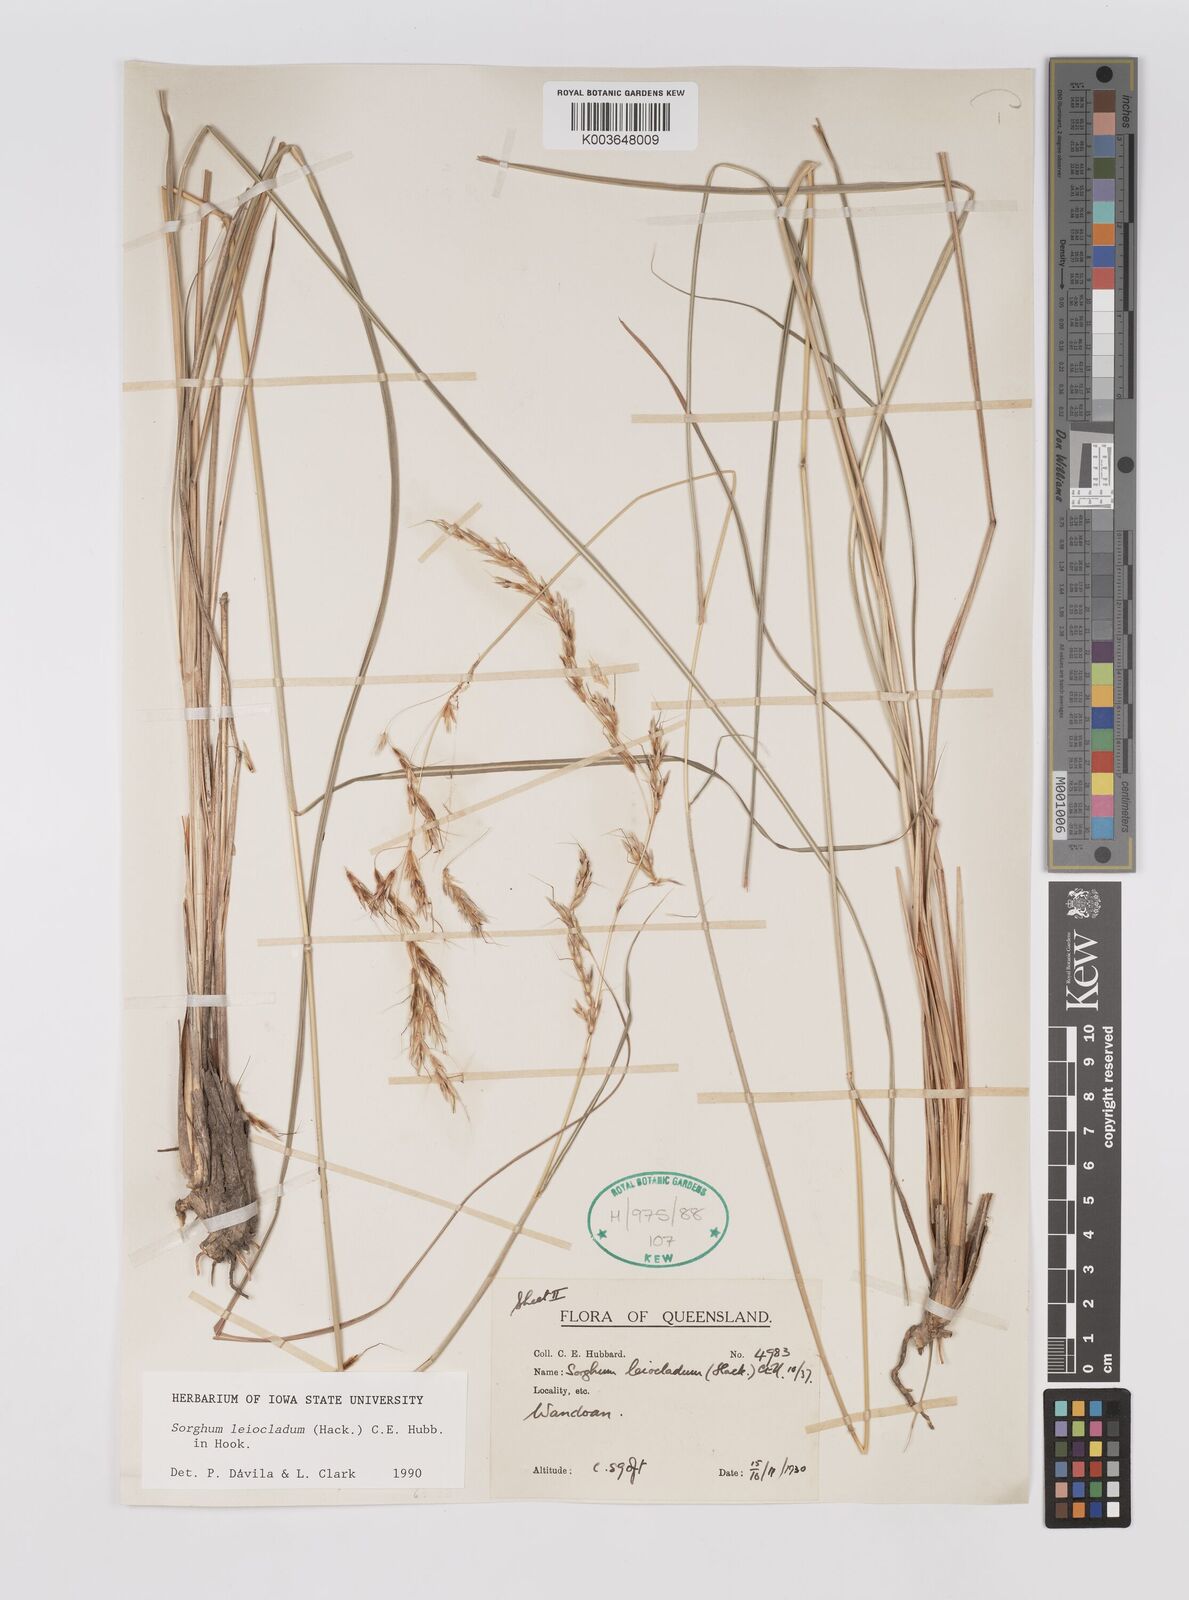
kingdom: Plantae
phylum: Tracheophyta
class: Liliopsida
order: Poales
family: Poaceae
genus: Sarga
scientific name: Sarga leioclada
